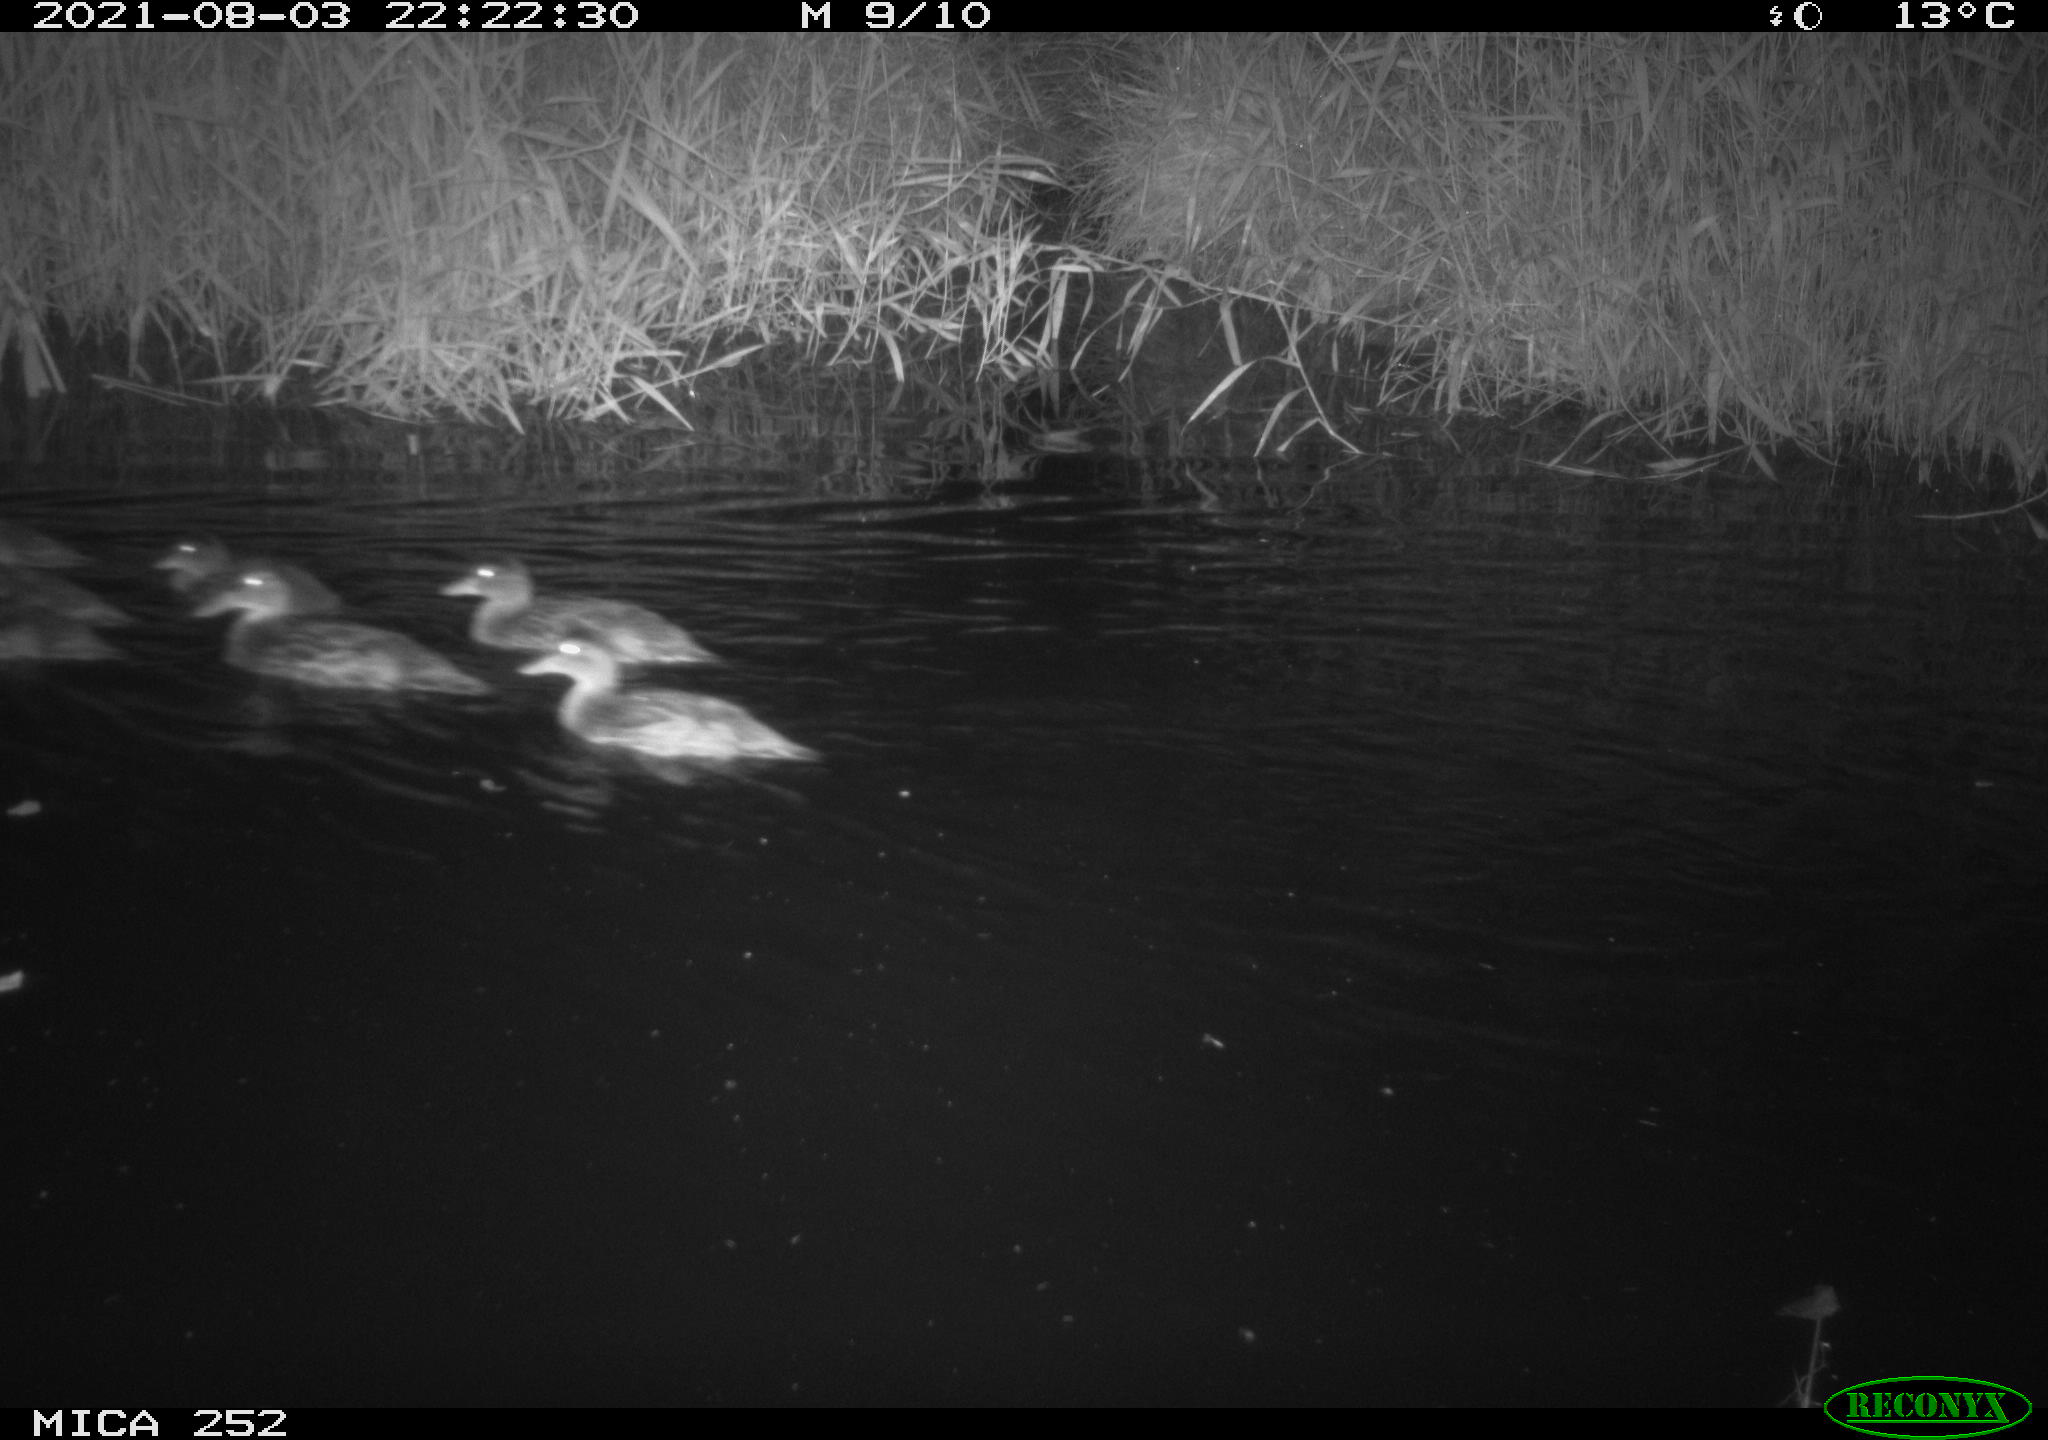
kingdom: Animalia
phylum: Chordata
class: Aves
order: Anseriformes
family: Anatidae
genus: Anas
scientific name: Anas platyrhynchos
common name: Mallard
